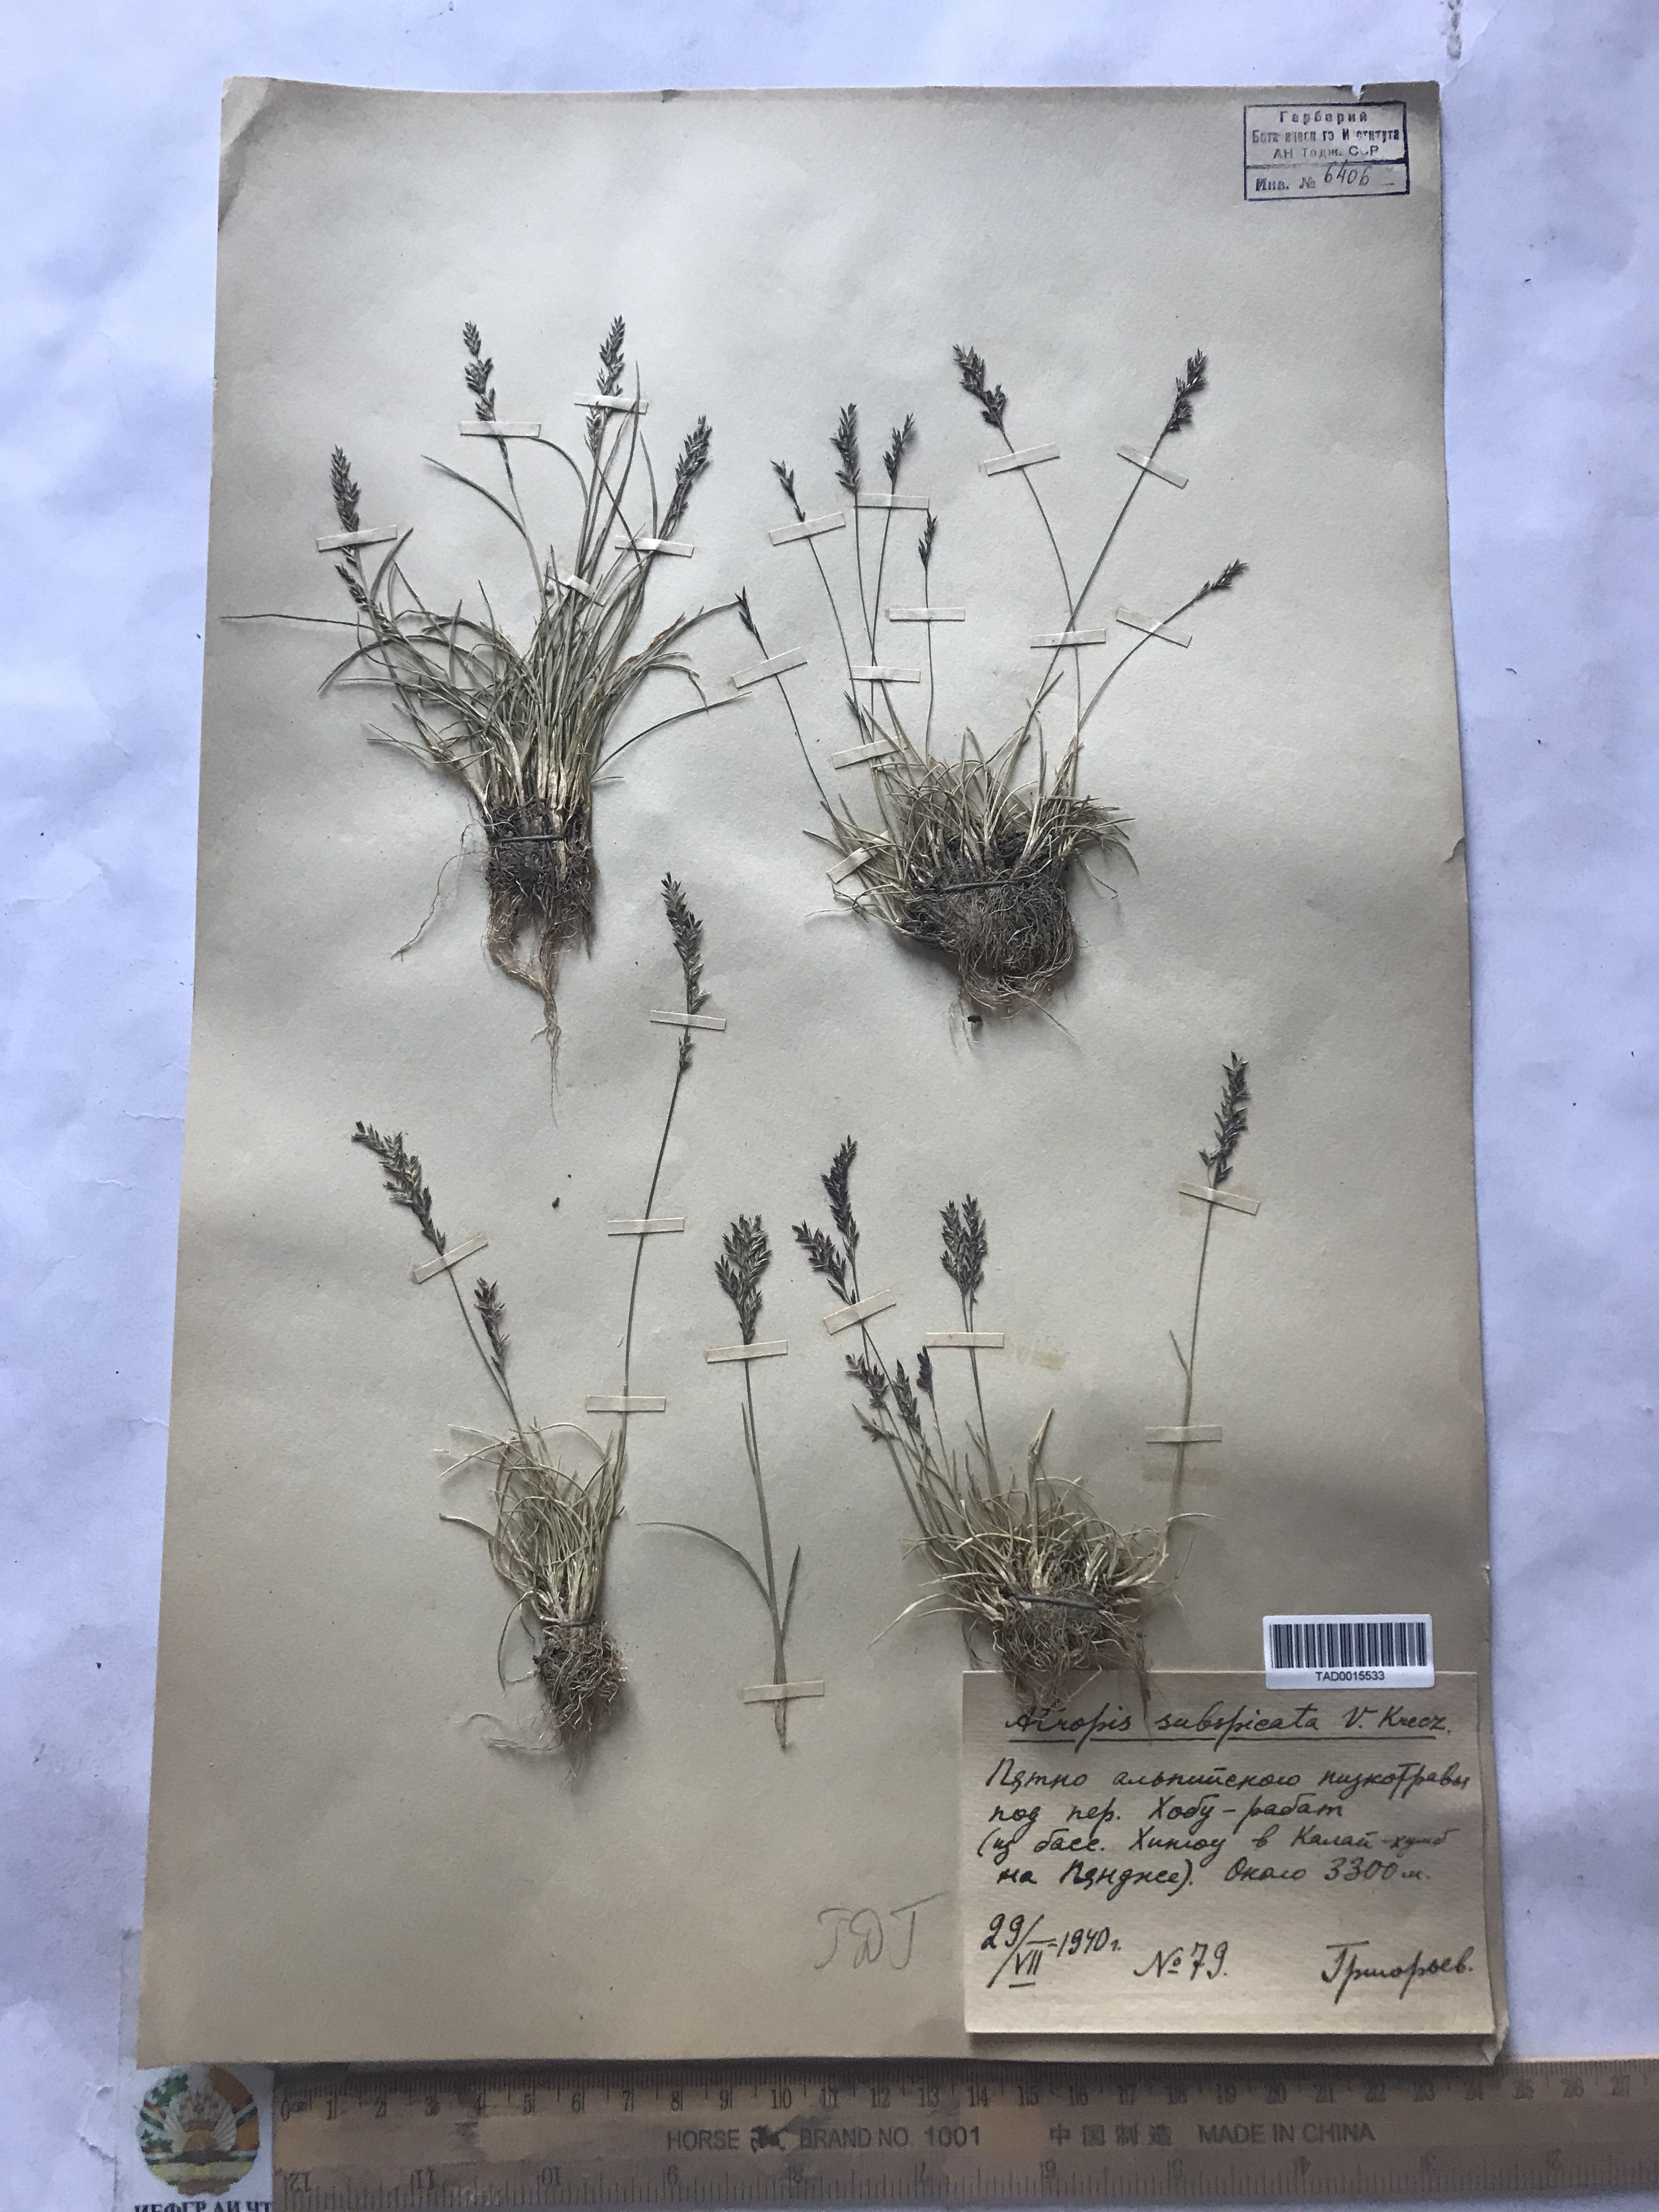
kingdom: Plantae
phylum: Tracheophyta
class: Liliopsida
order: Poales
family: Poaceae
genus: Puccinellia
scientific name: Puccinellia subspicata
